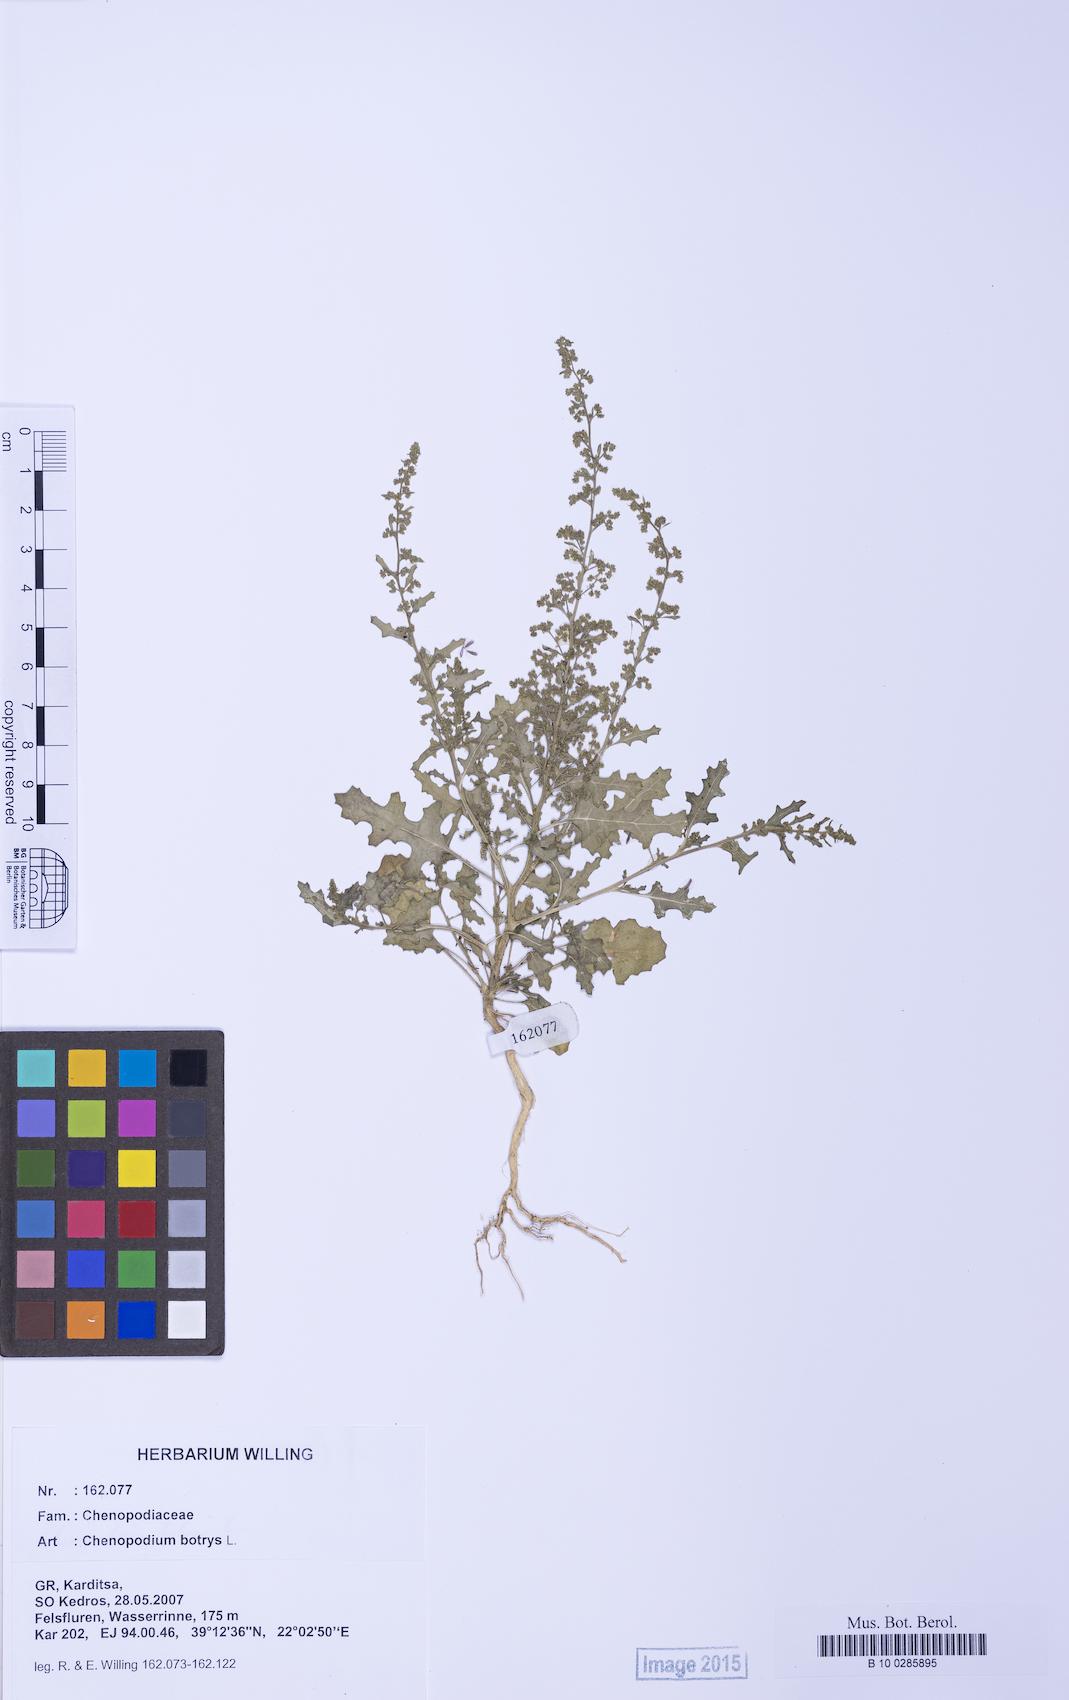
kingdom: Plantae
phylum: Tracheophyta
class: Magnoliopsida
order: Caryophyllales
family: Amaranthaceae
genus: Dysphania
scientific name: Dysphania botrys
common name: Feather-geranium
